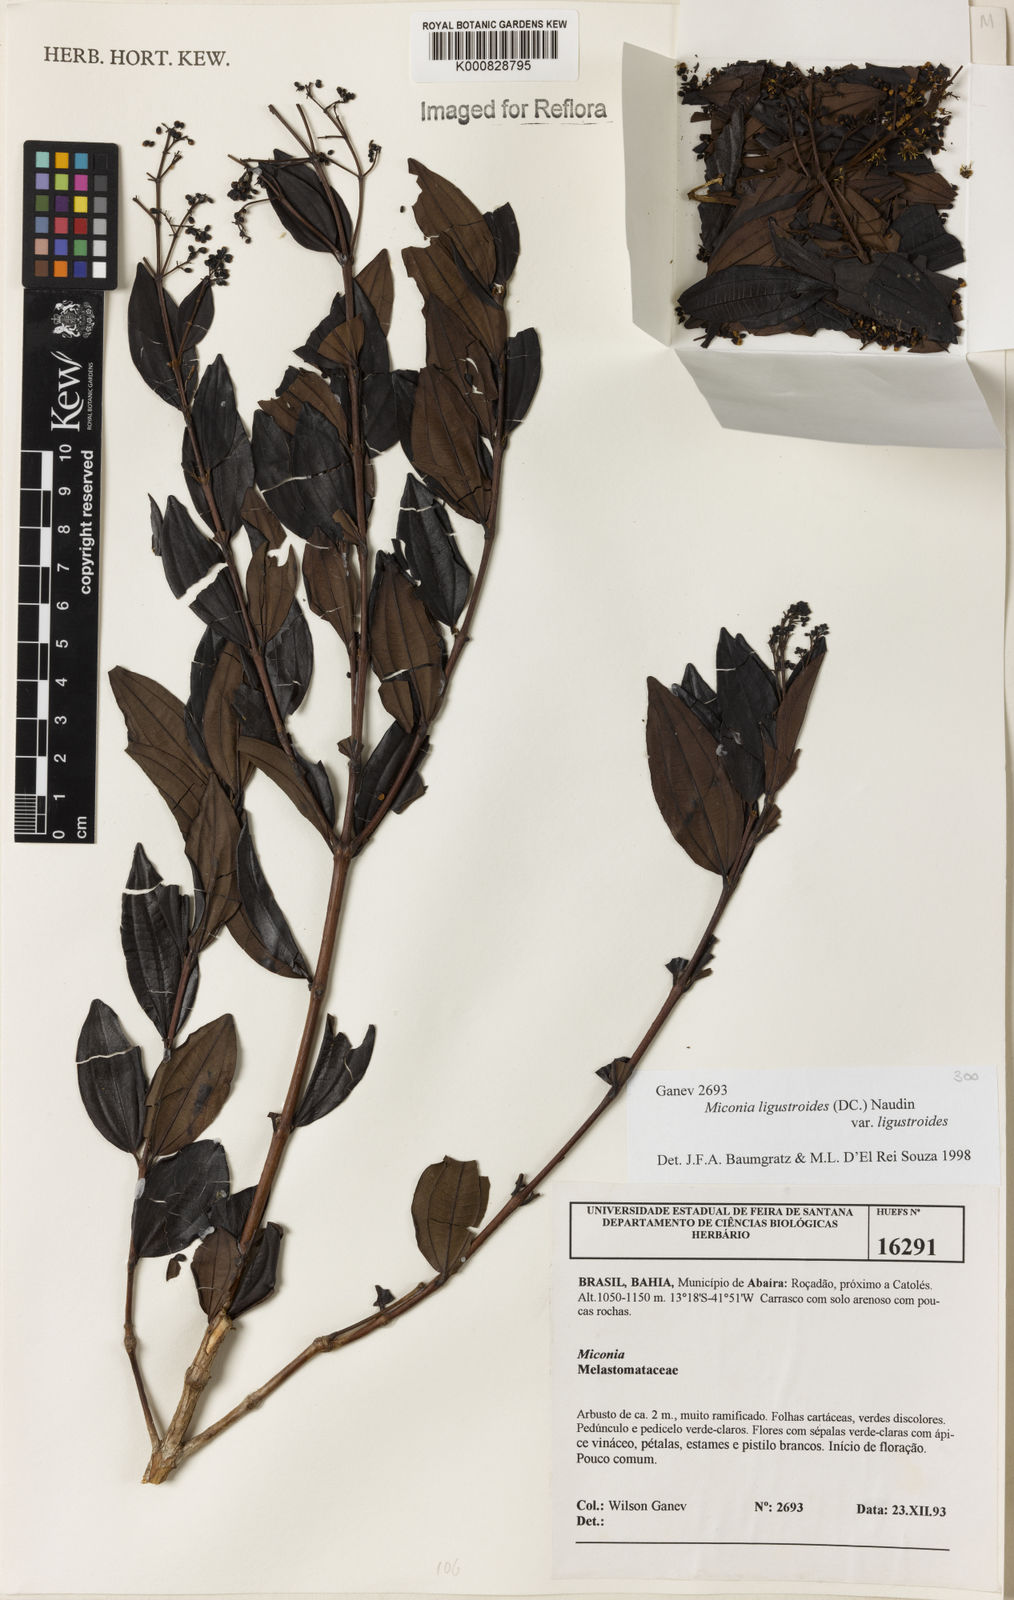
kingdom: Plantae
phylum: Tracheophyta
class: Magnoliopsida
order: Myrtales
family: Melastomataceae
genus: Miconia
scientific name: Miconia ligustroides
